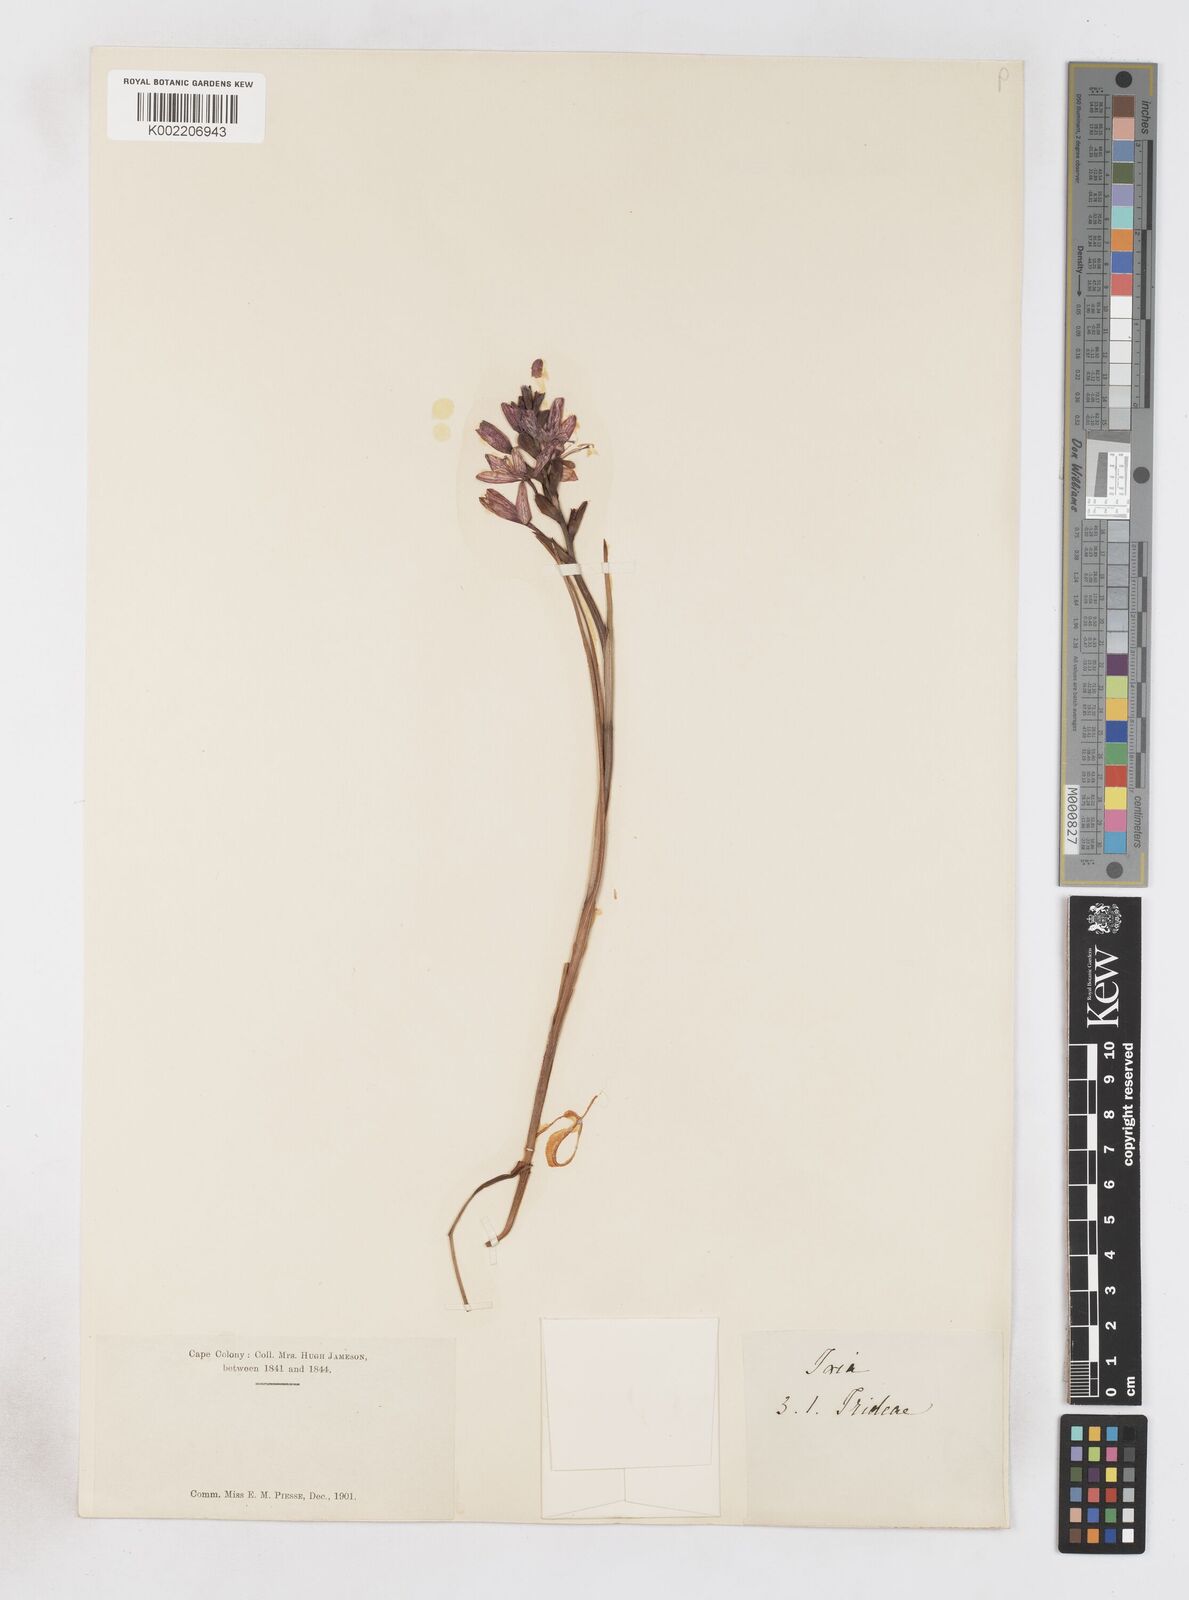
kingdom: Plantae
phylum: Tracheophyta
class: Liliopsida
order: Asparagales
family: Iridaceae
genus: Thereianthus
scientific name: Thereianthus spicatus
